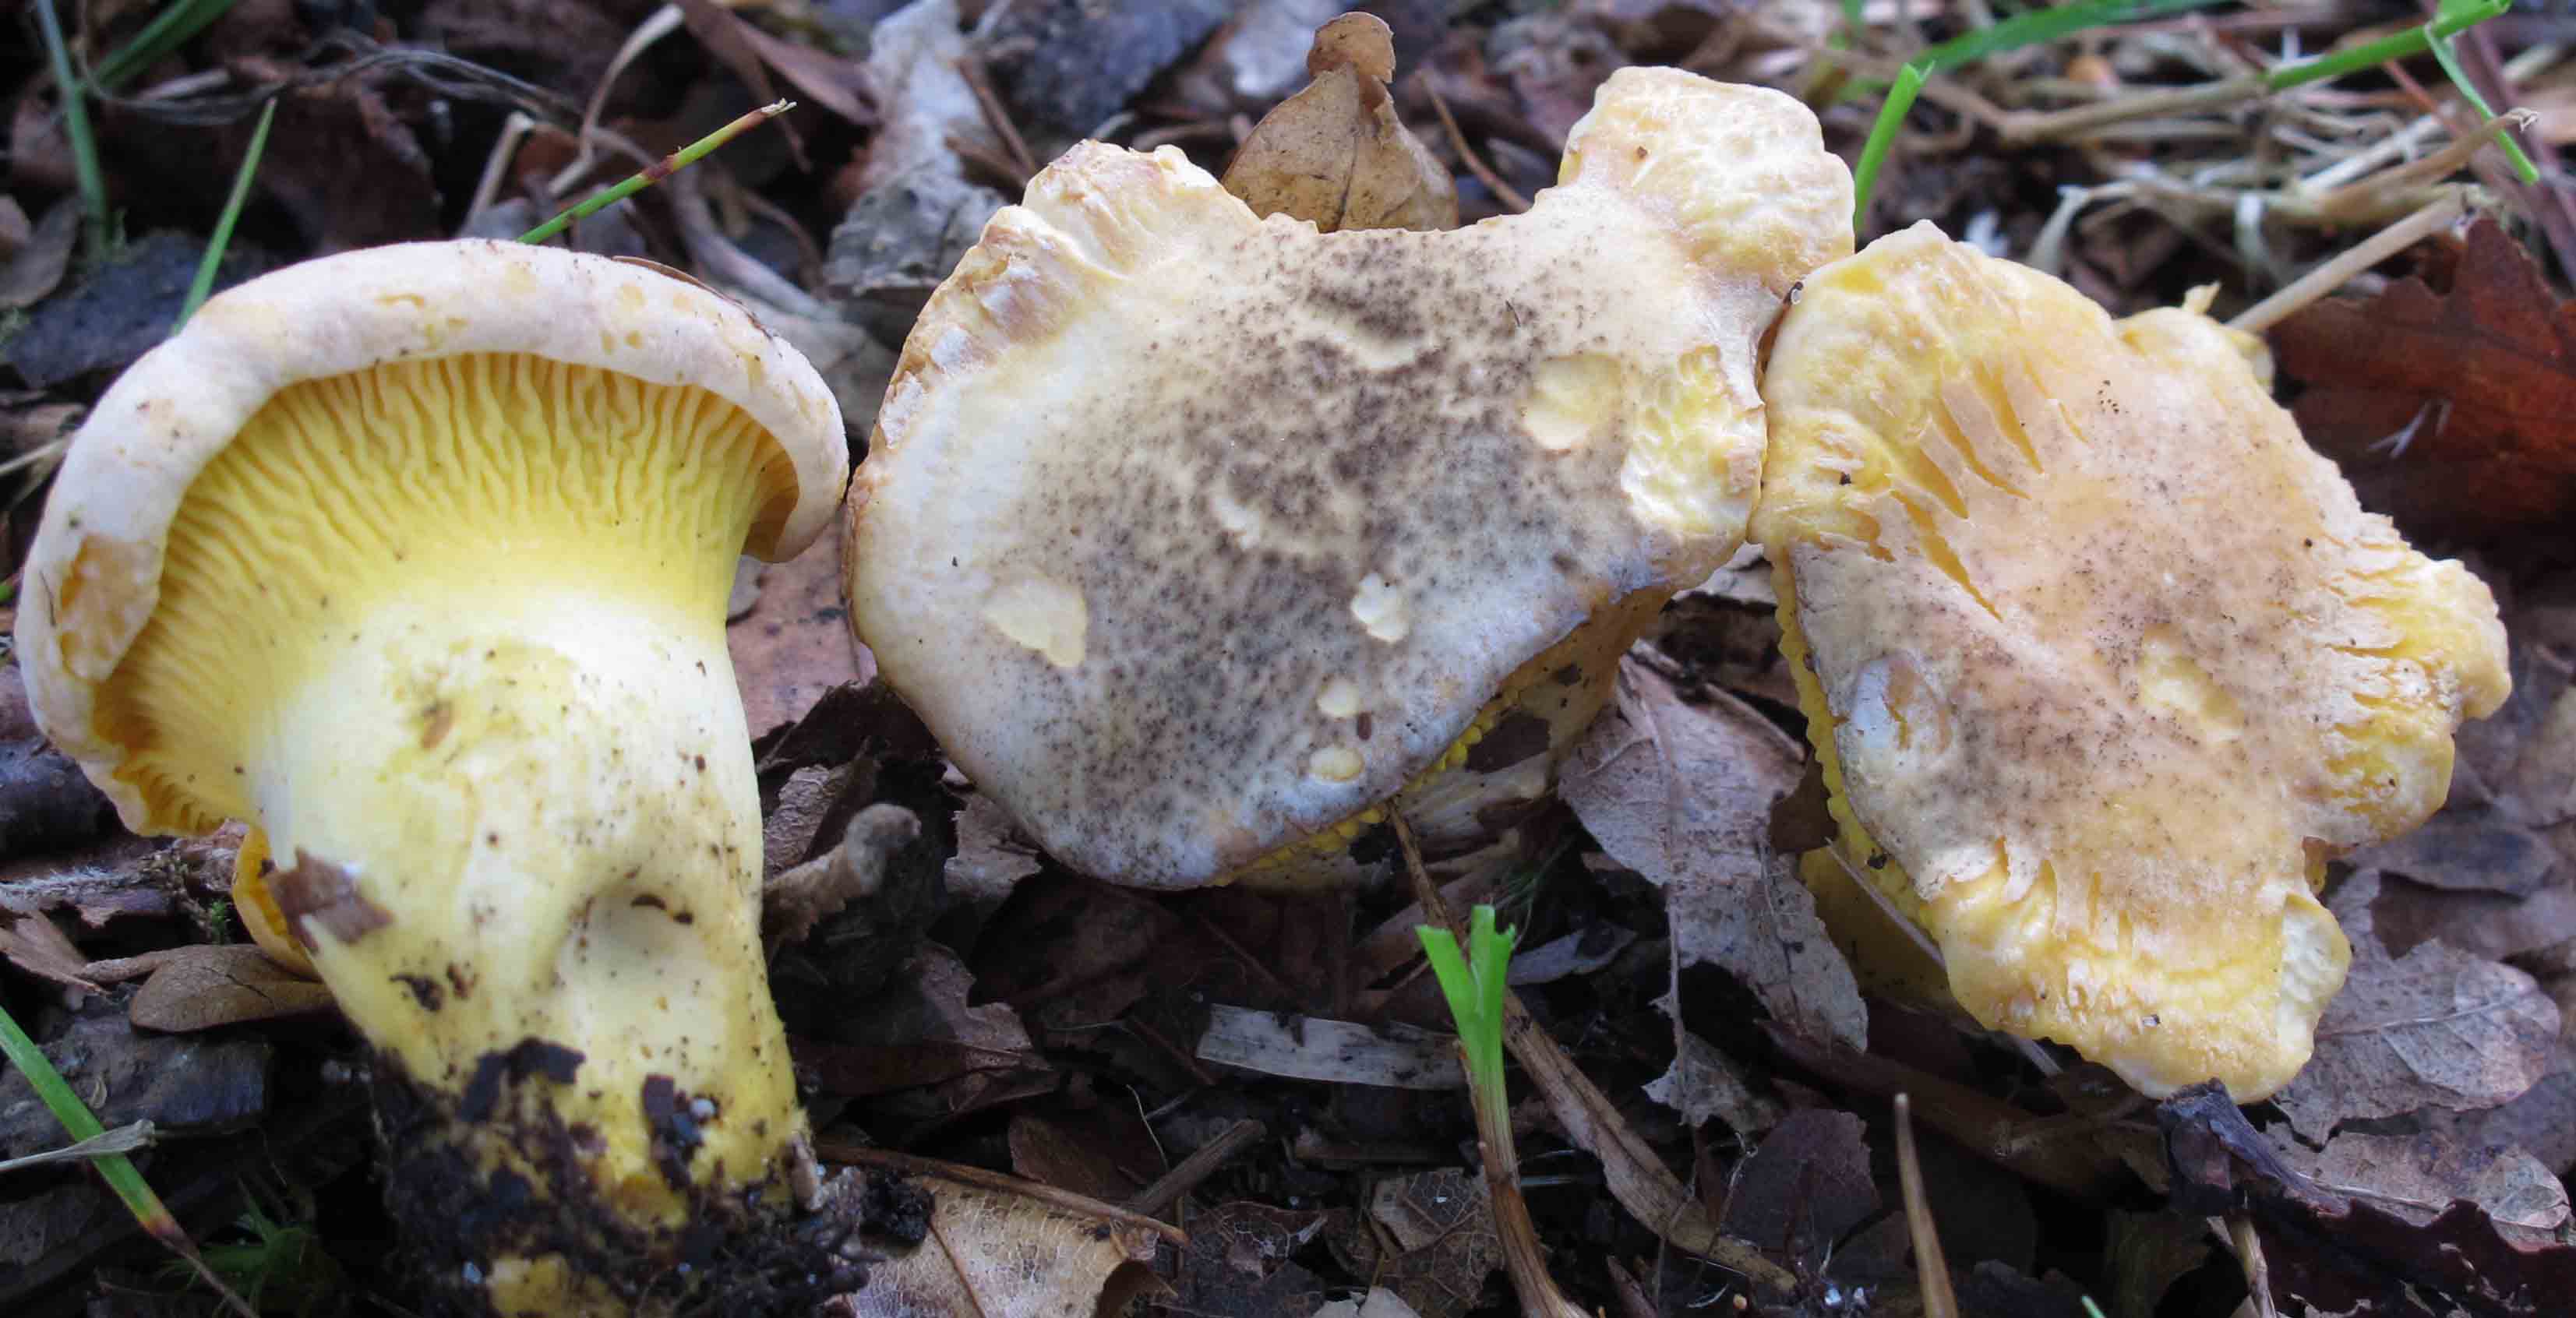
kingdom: Fungi
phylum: Basidiomycota
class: Agaricomycetes
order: Cantharellales
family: Hydnaceae
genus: Cantharellus
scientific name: Cantharellus amethysteus
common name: ametyst-kantarel
